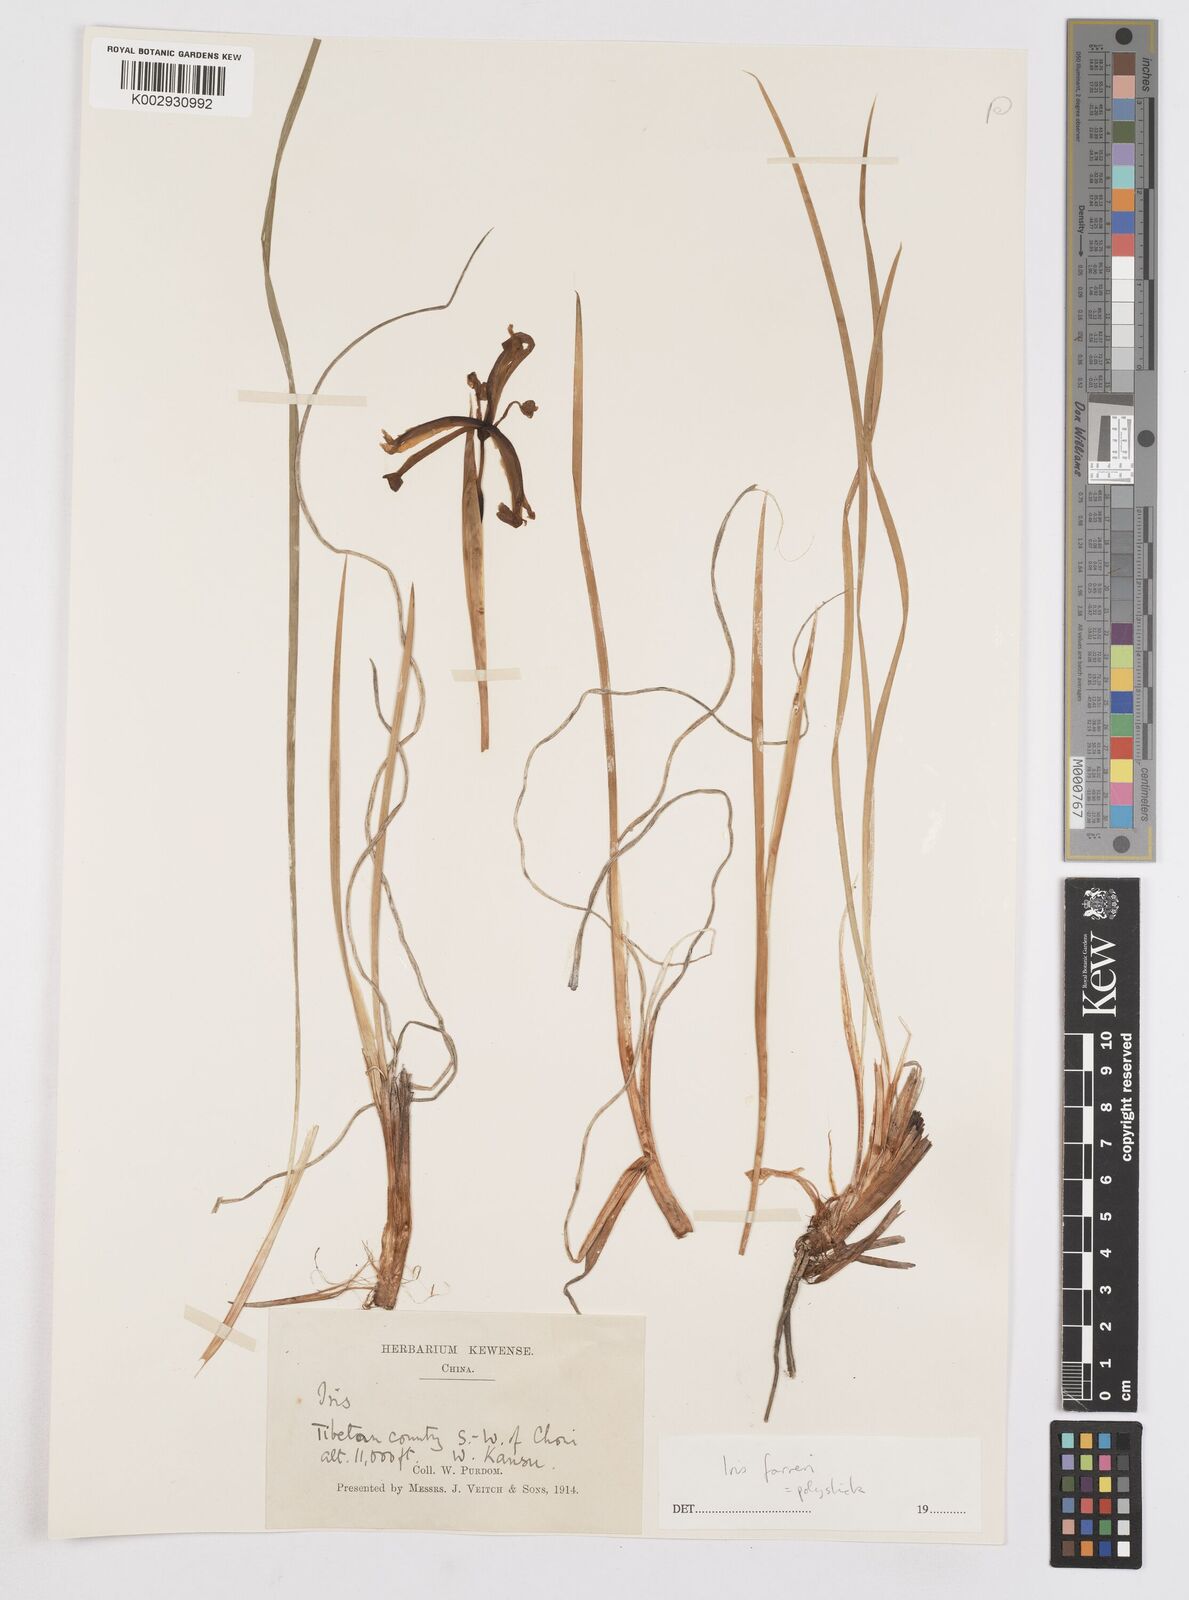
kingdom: Plantae
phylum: Tracheophyta
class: Liliopsida
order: Asparagales
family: Iridaceae
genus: Iris
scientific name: Iris farreri
